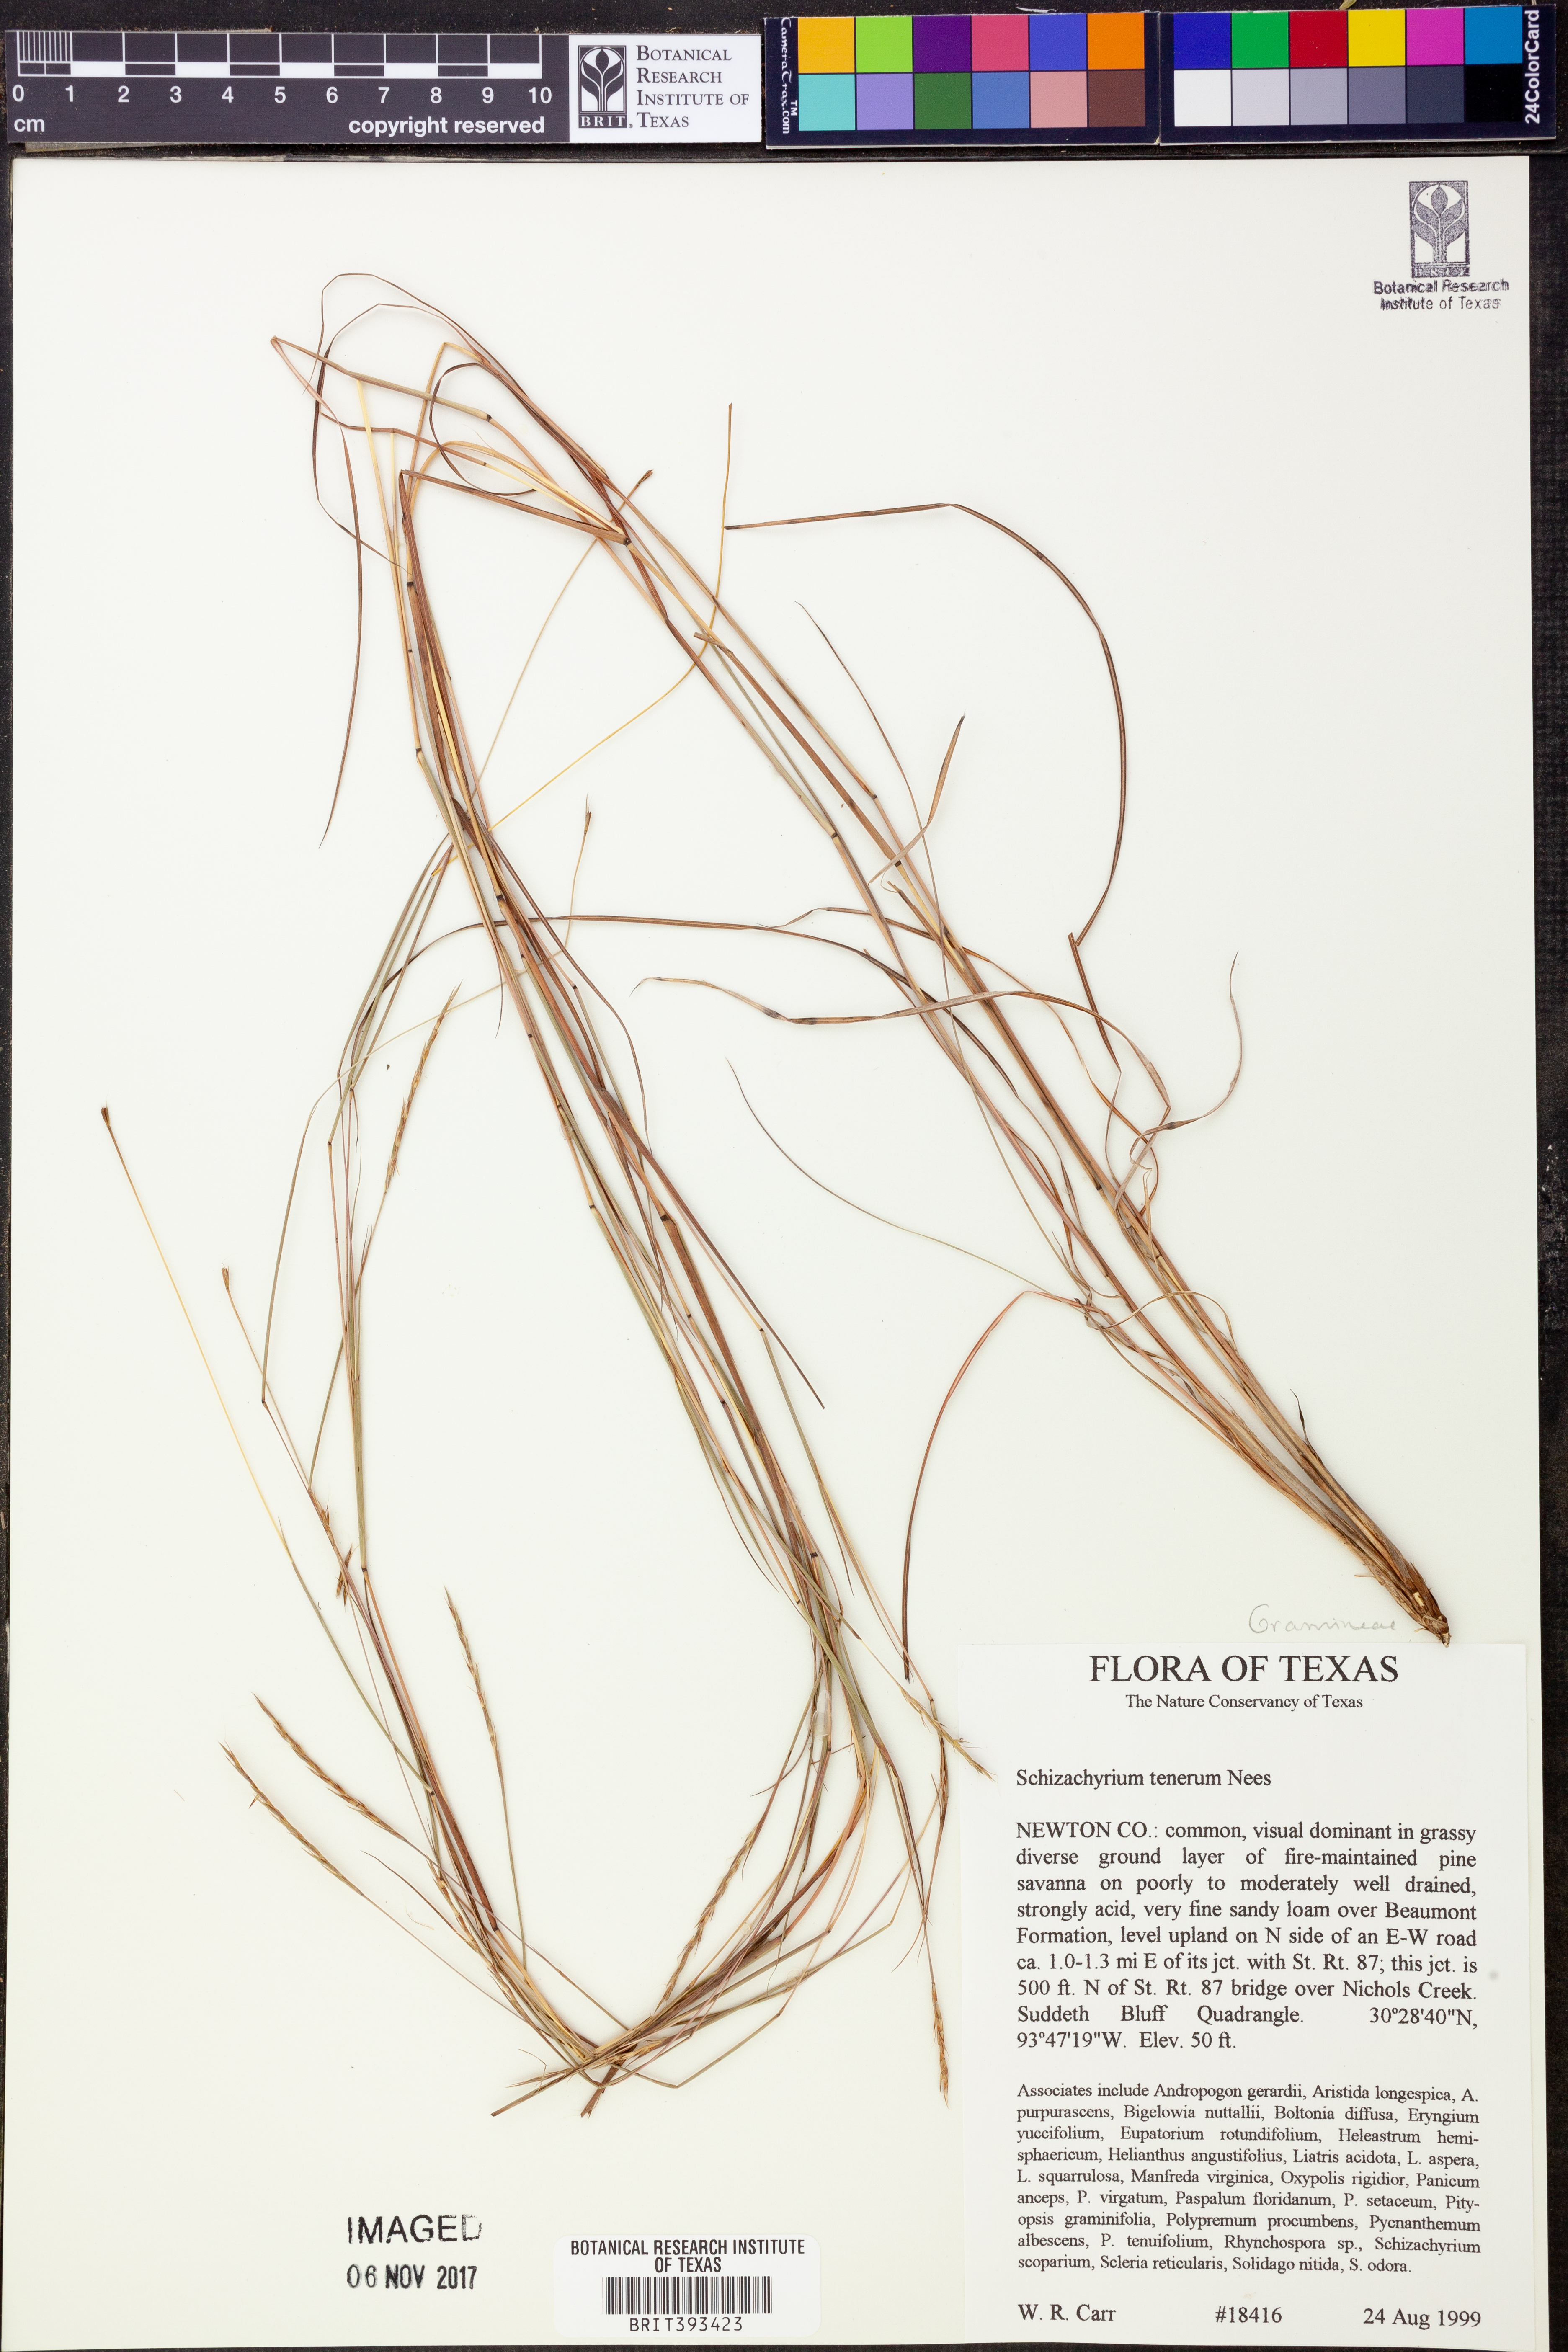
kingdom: Plantae
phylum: Tracheophyta
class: Liliopsida
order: Poales
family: Poaceae
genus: Andropogon
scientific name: Andropogon tener
